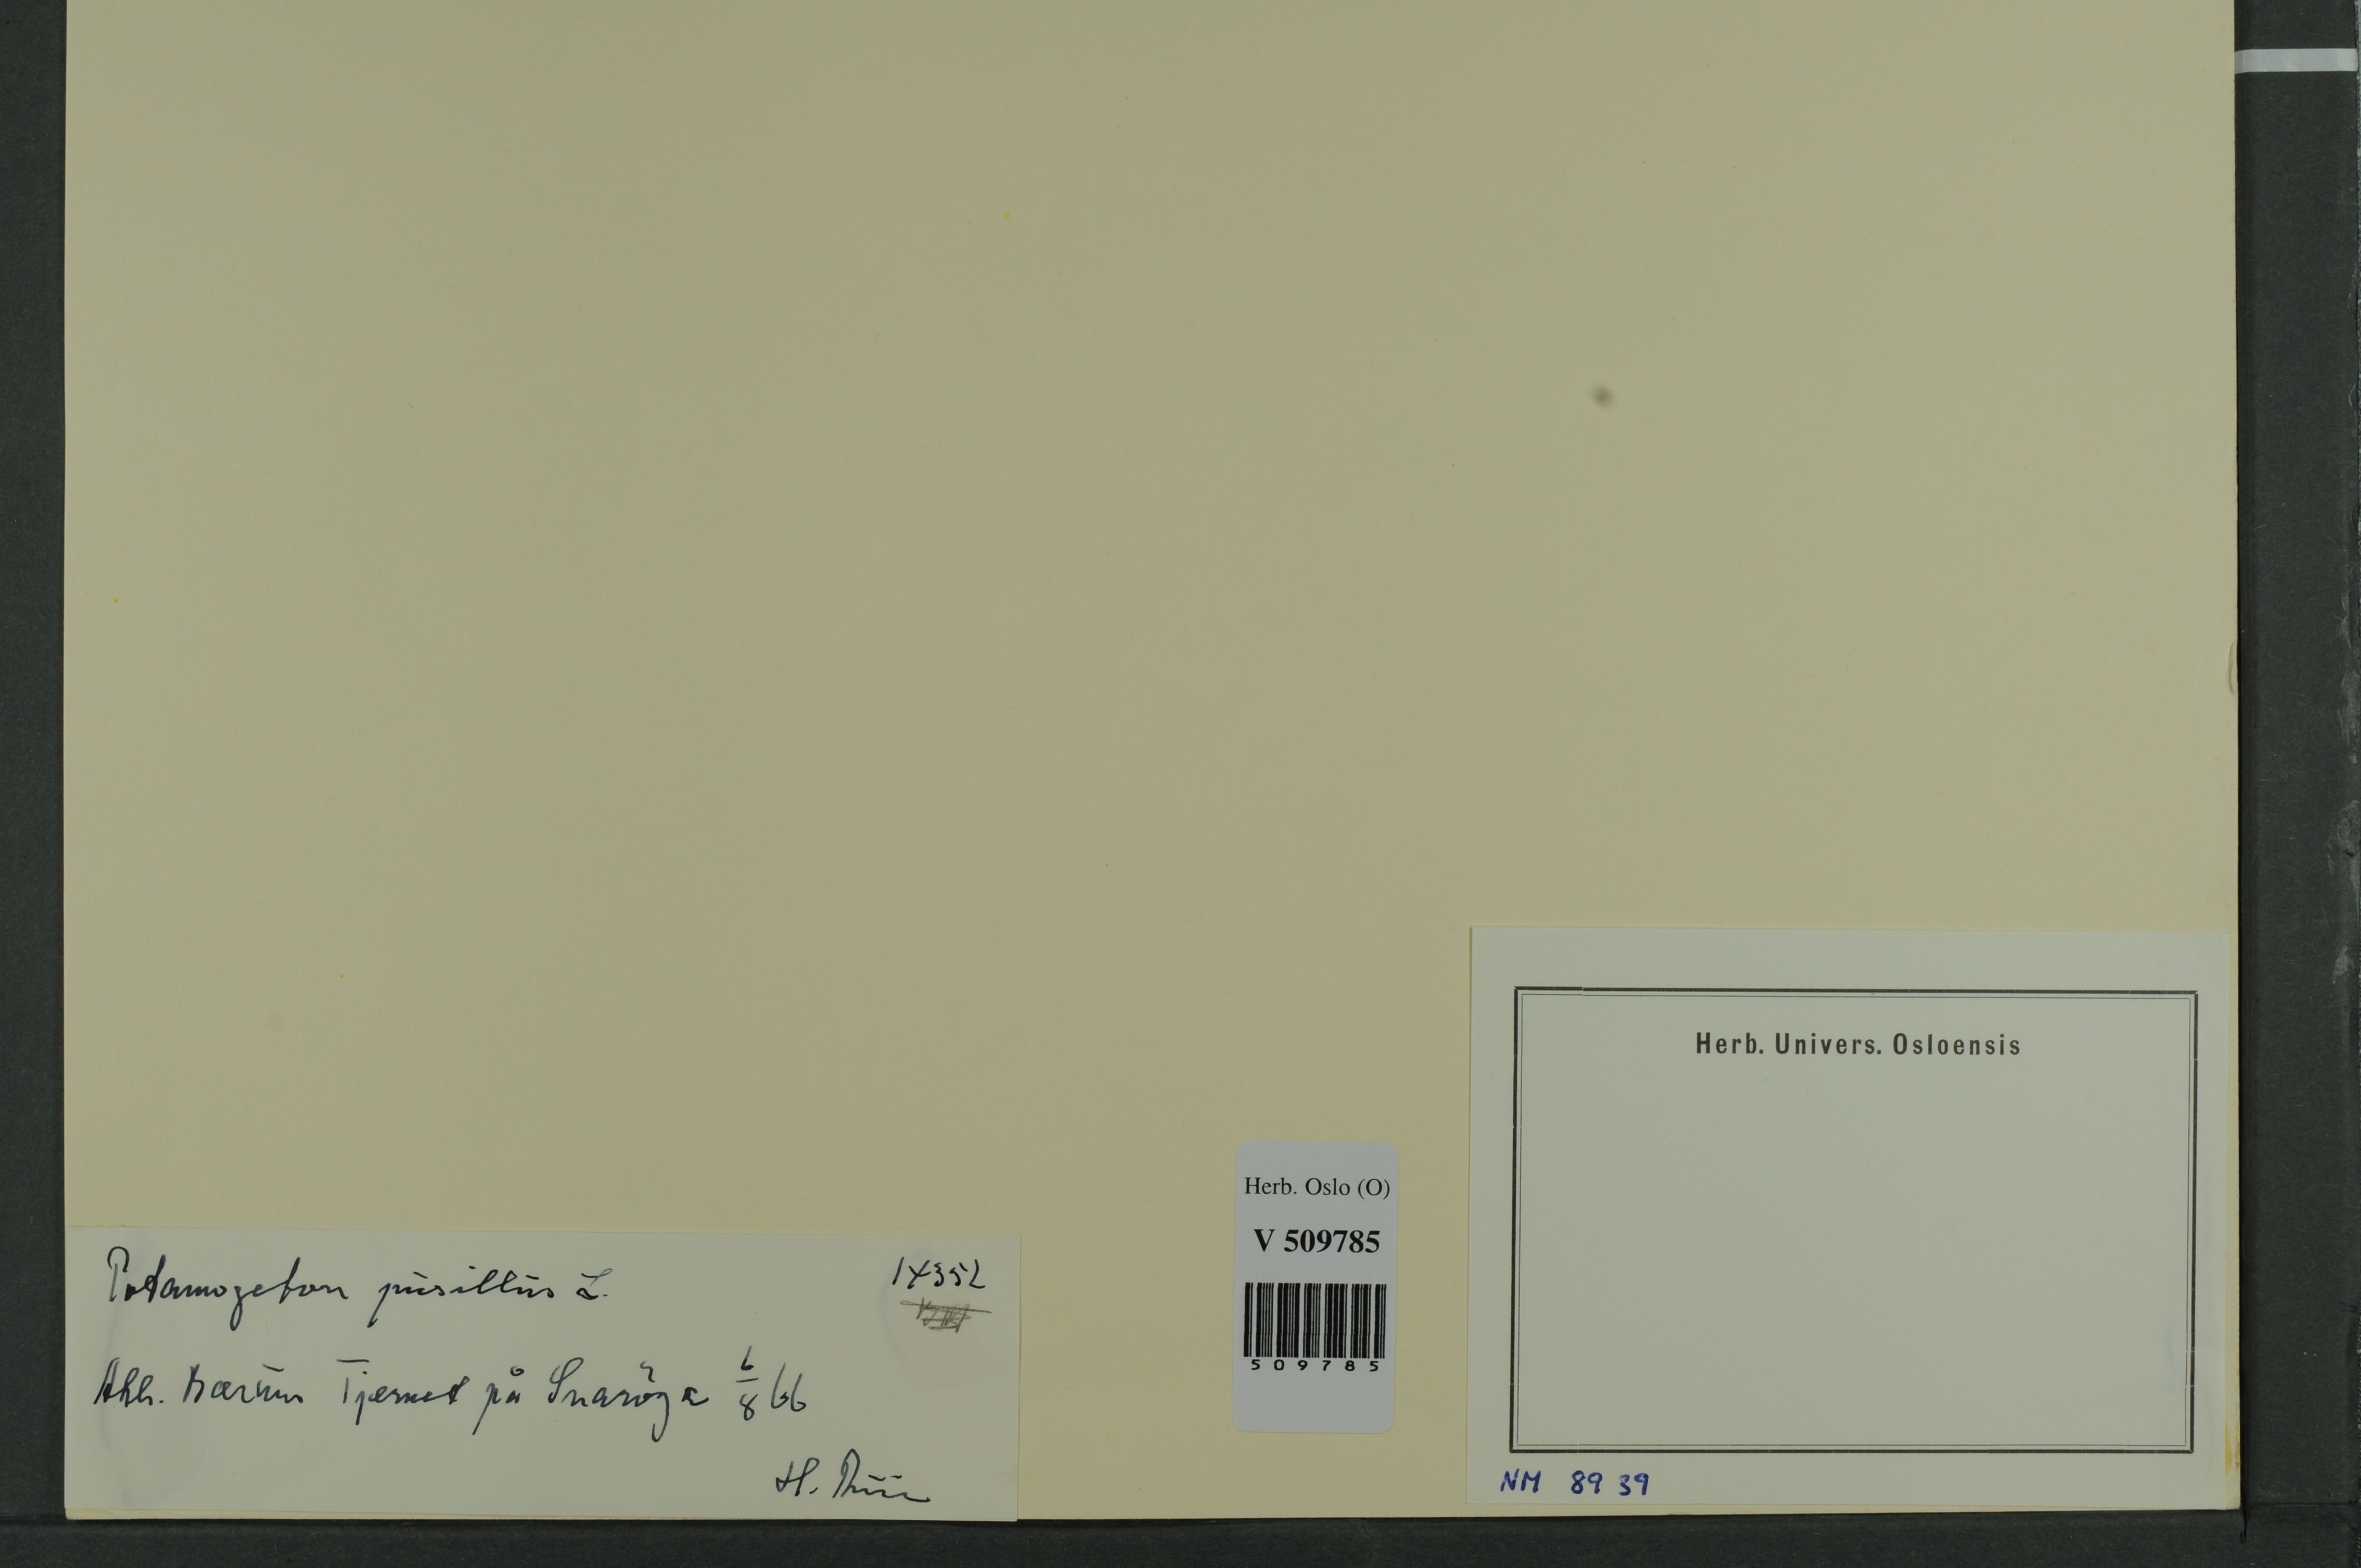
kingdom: Plantae
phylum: Tracheophyta
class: Liliopsida
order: Alismatales
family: Potamogetonaceae
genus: Potamogeton
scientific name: Potamogeton berchtoldii
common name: Small pondweed
